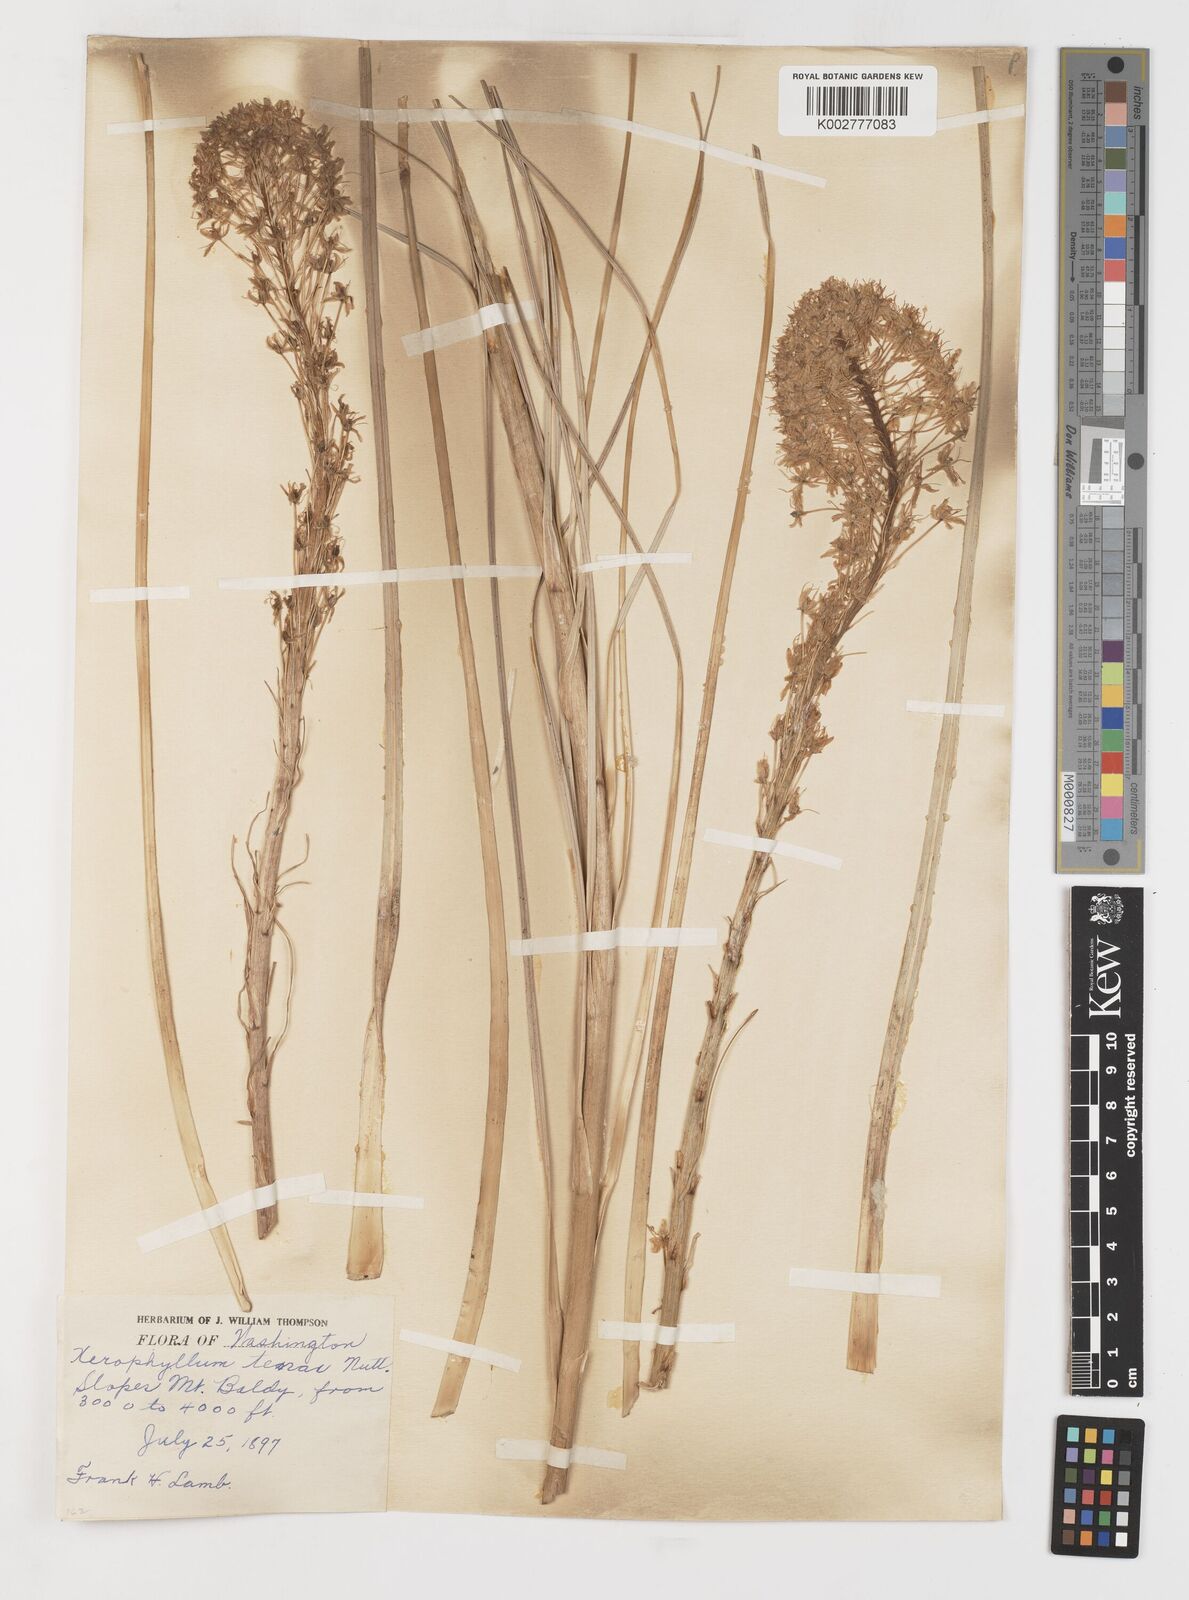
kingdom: Plantae
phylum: Tracheophyta
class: Liliopsida
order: Liliales
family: Melanthiaceae
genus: Xerophyllum
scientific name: Xerophyllum tenax
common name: Bear-grass
